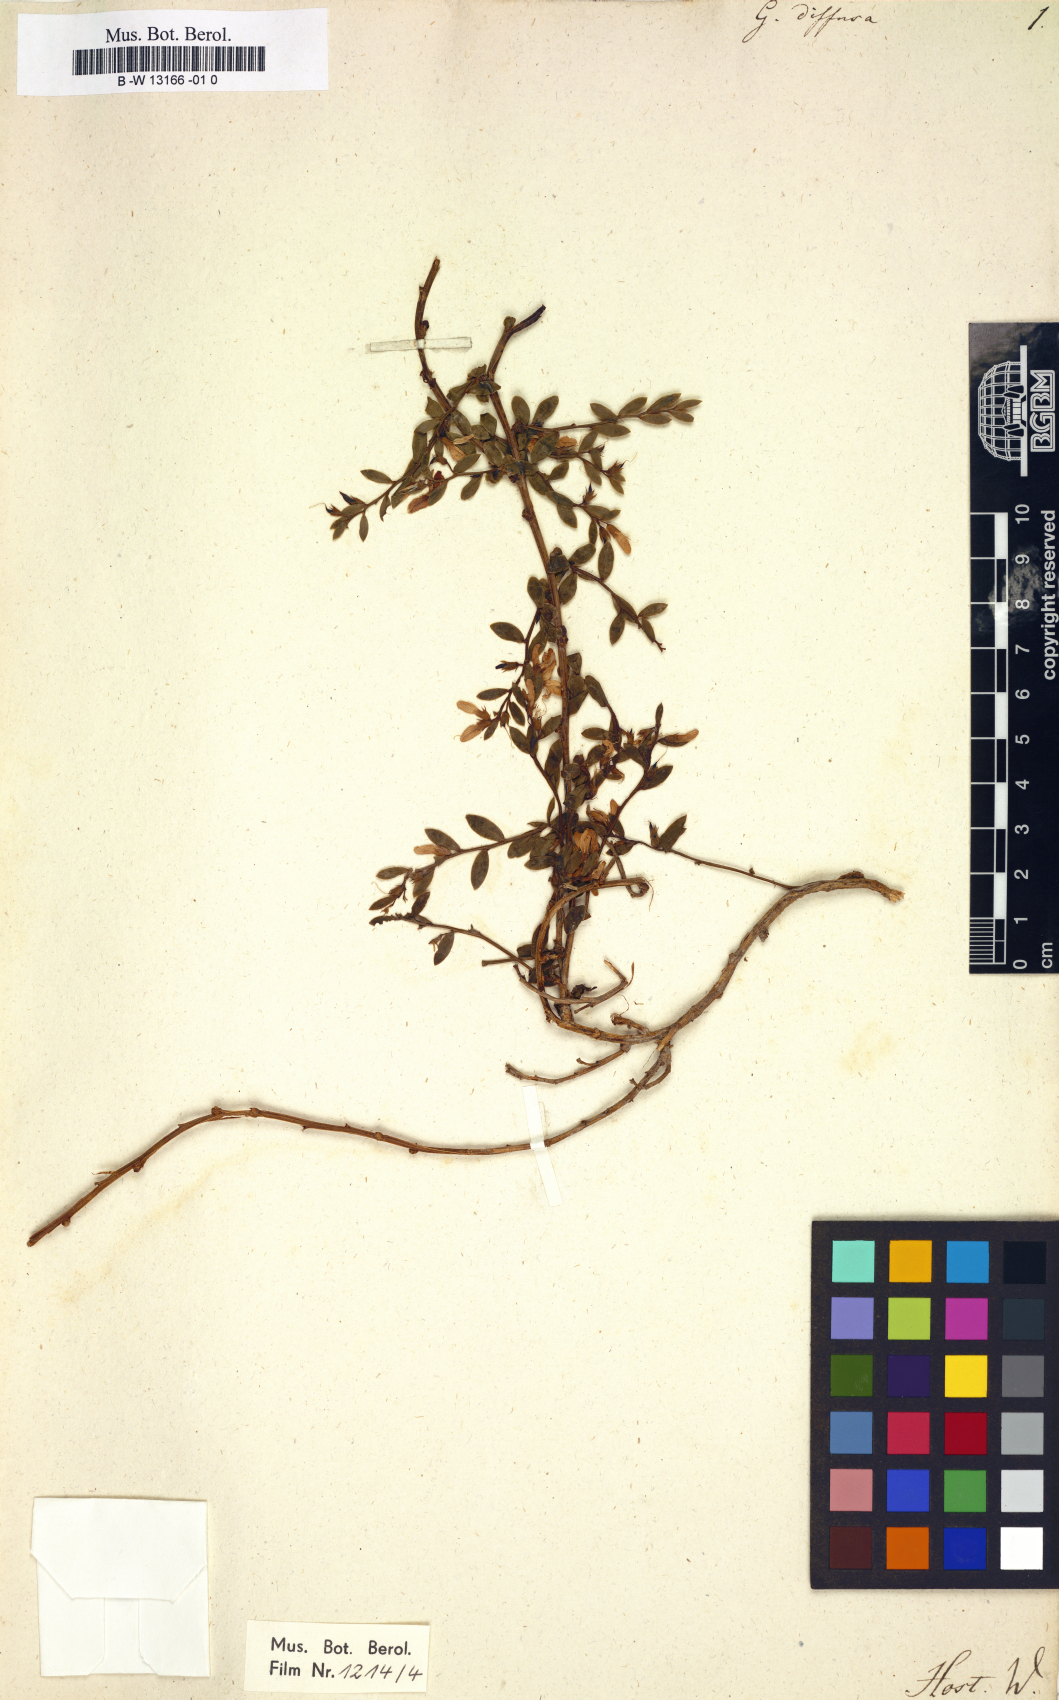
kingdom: Plantae
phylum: Tracheophyta
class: Magnoliopsida
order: Fabales
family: Fabaceae
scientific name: Fabaceae
